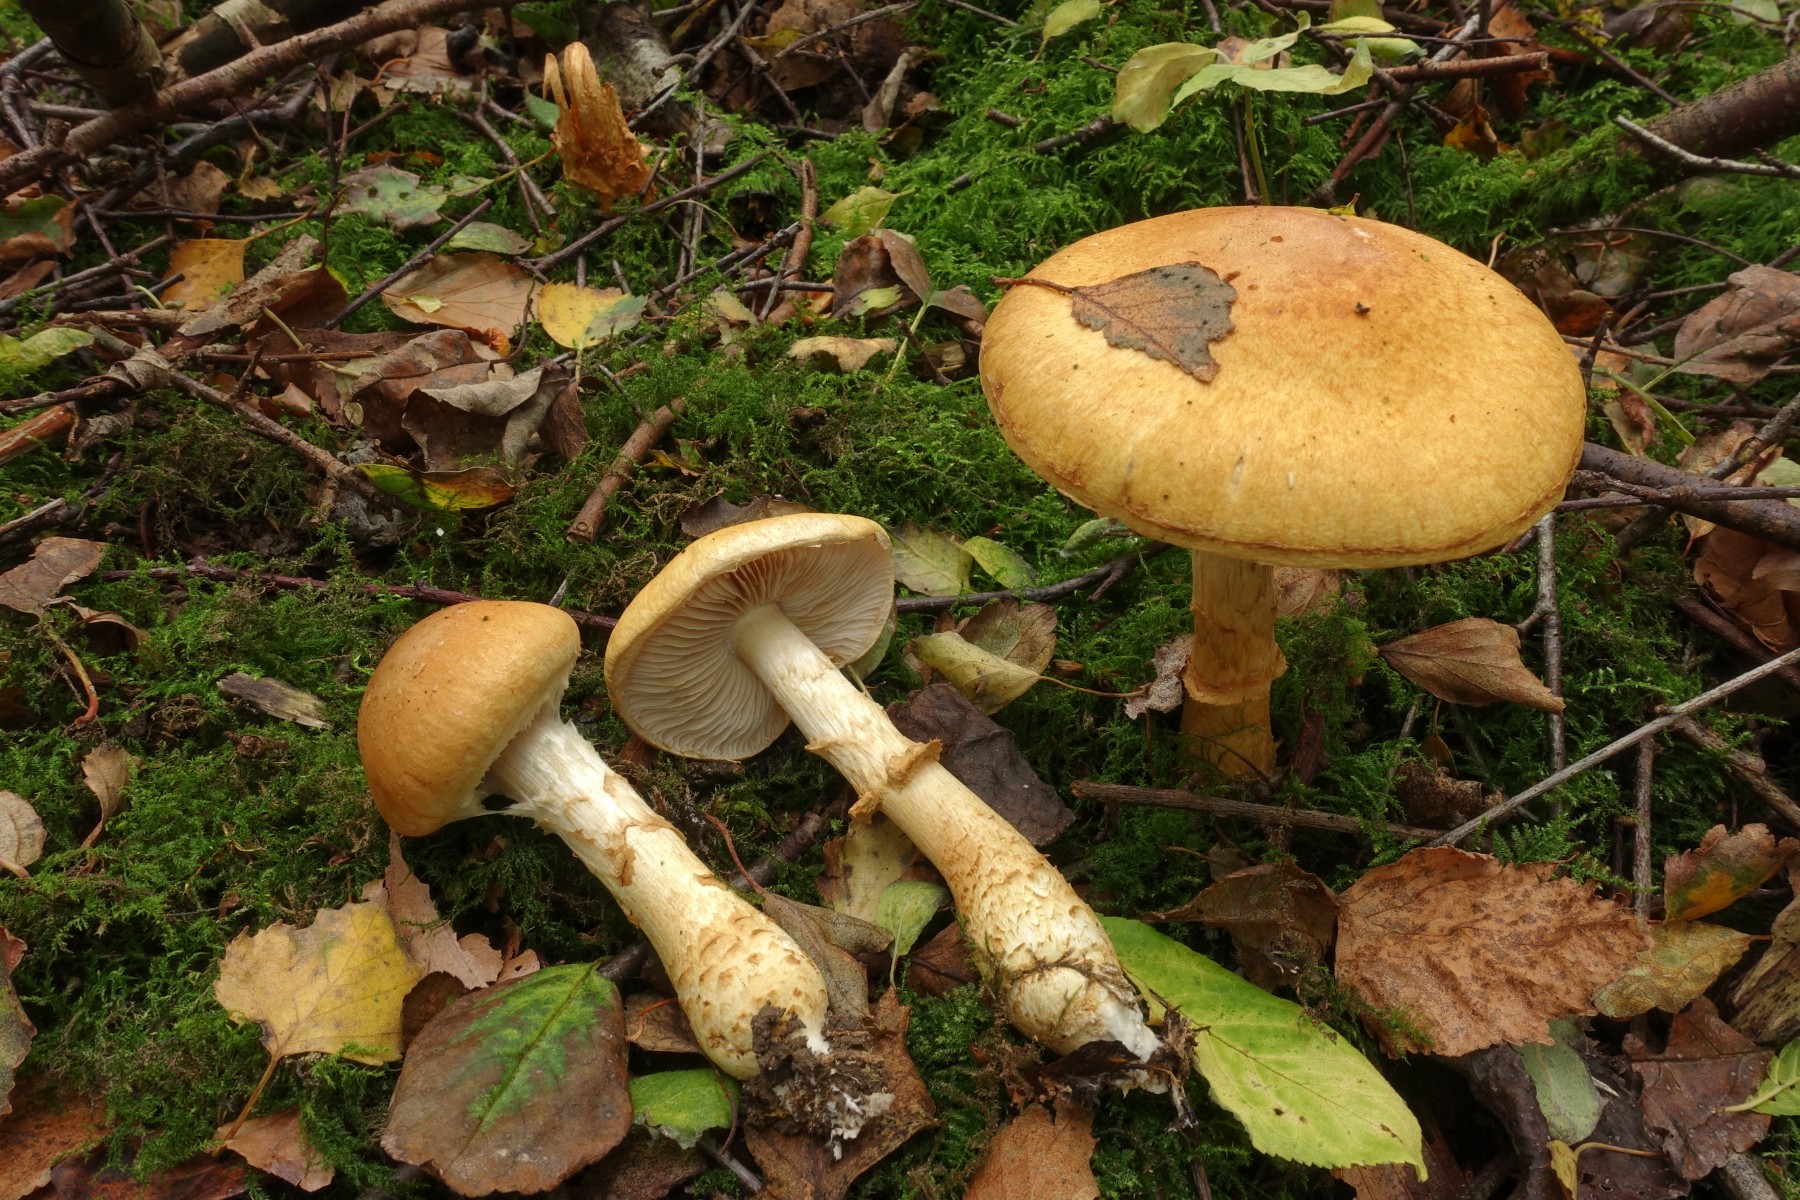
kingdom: Fungi
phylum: Basidiomycota
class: Agaricomycetes
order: Agaricales
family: Cortinariaceae
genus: Phlegmacium
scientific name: Phlegmacium triumphans
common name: gulbæltet slørhat
